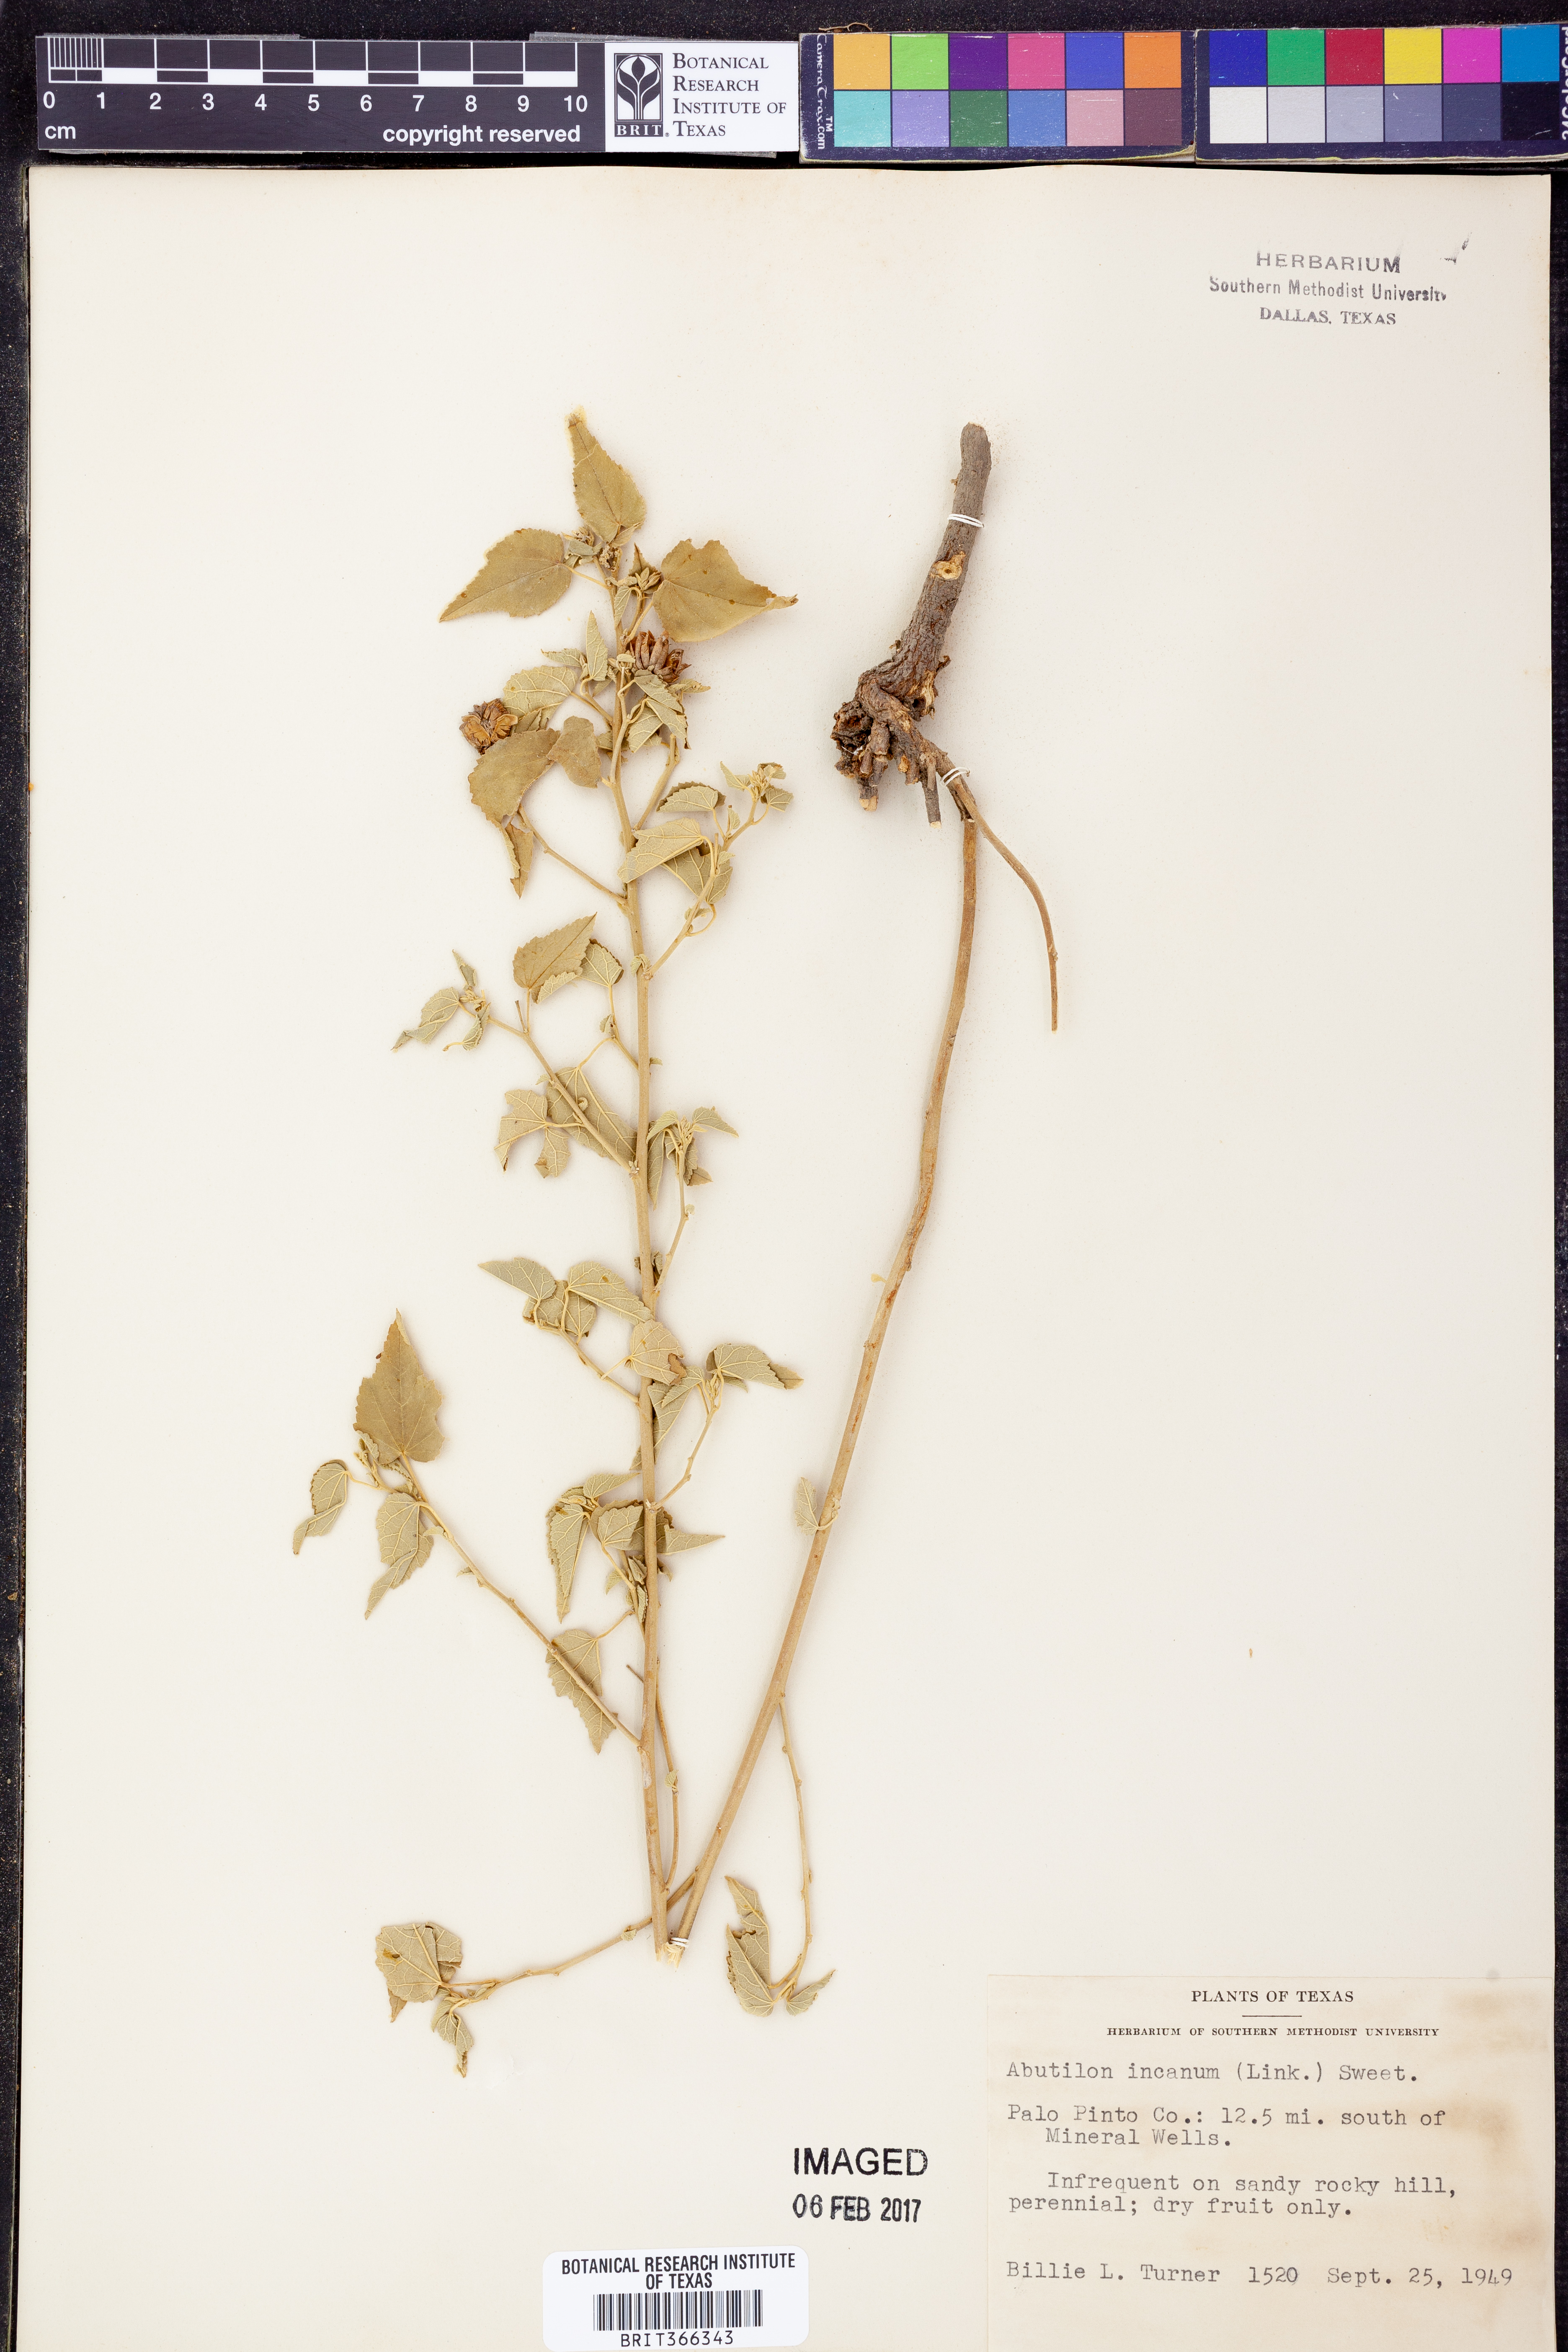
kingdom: Plantae
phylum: Tracheophyta
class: Magnoliopsida
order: Malvales
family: Malvaceae
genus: Abutilon
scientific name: Abutilon incanum
